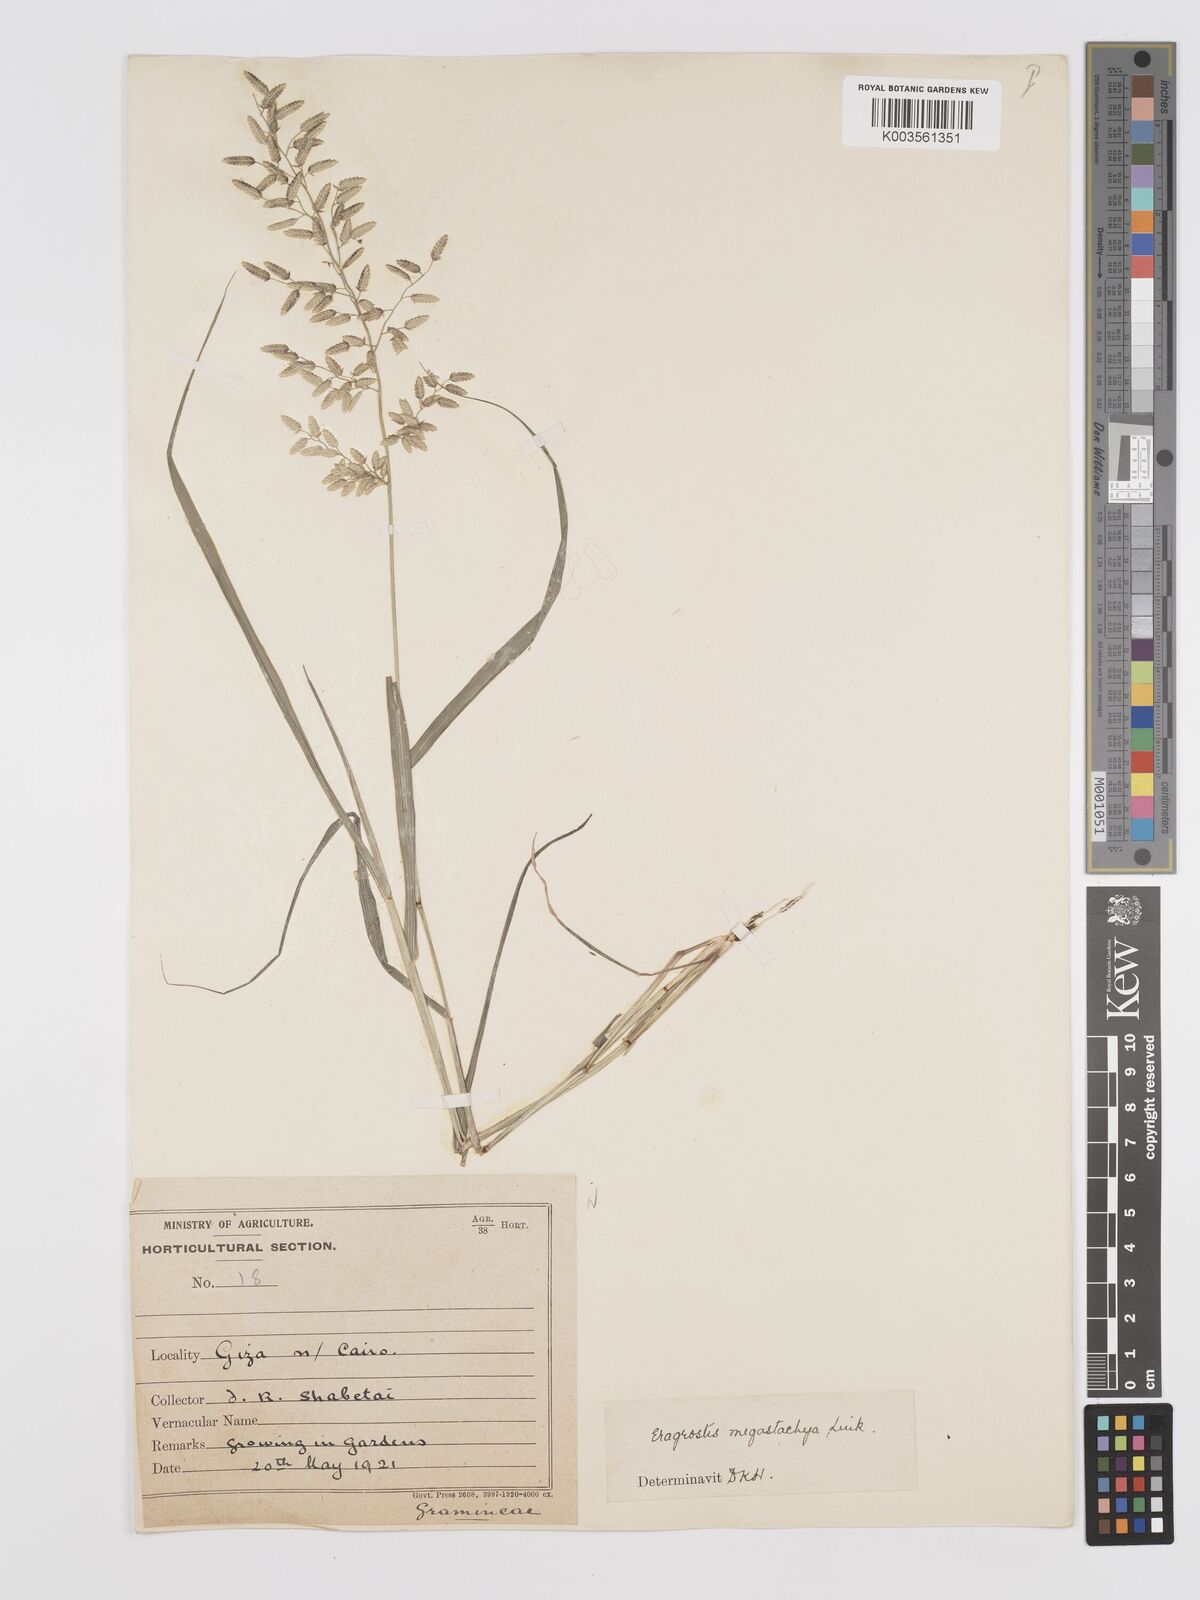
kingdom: Plantae
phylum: Tracheophyta
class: Liliopsida
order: Poales
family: Poaceae
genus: Eragrostis
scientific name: Eragrostis cilianensis
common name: Stinkgrass
